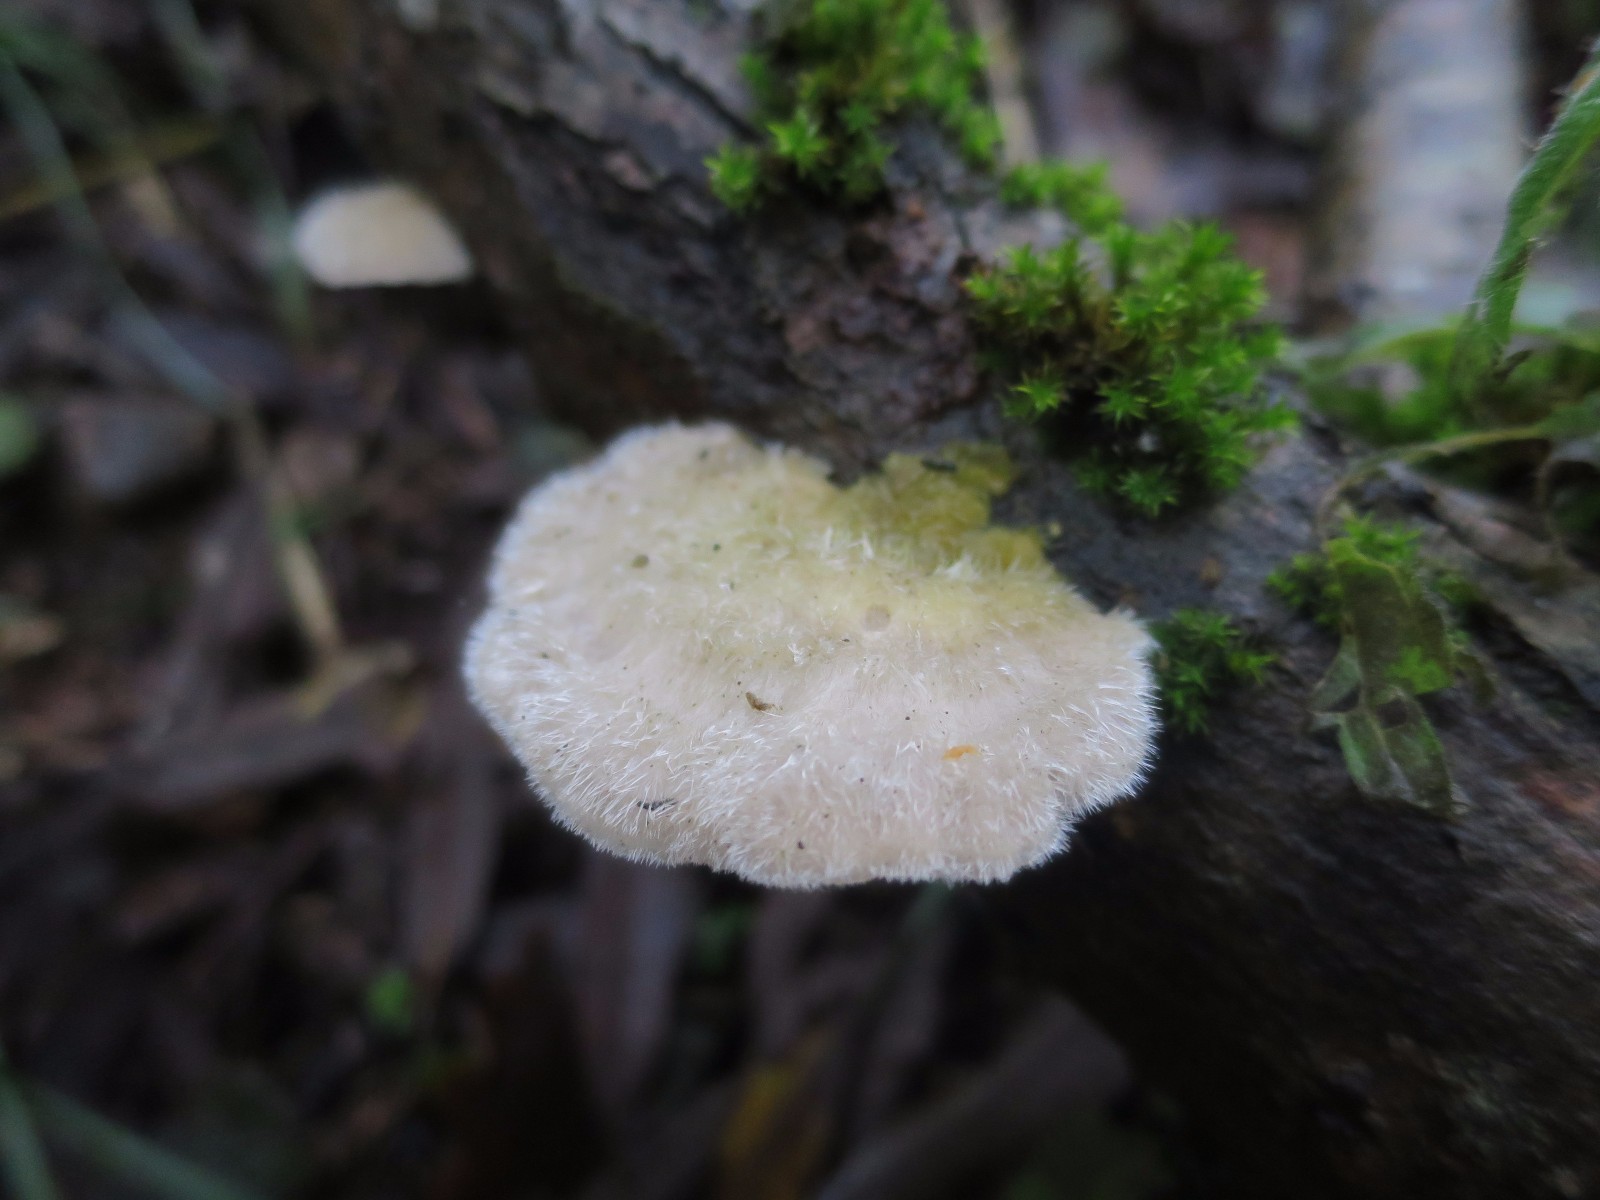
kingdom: Fungi
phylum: Basidiomycota
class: Agaricomycetes
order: Polyporales
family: Polyporaceae
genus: Trametes
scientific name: Trametes hirsuta
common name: håret læderporesvamp
